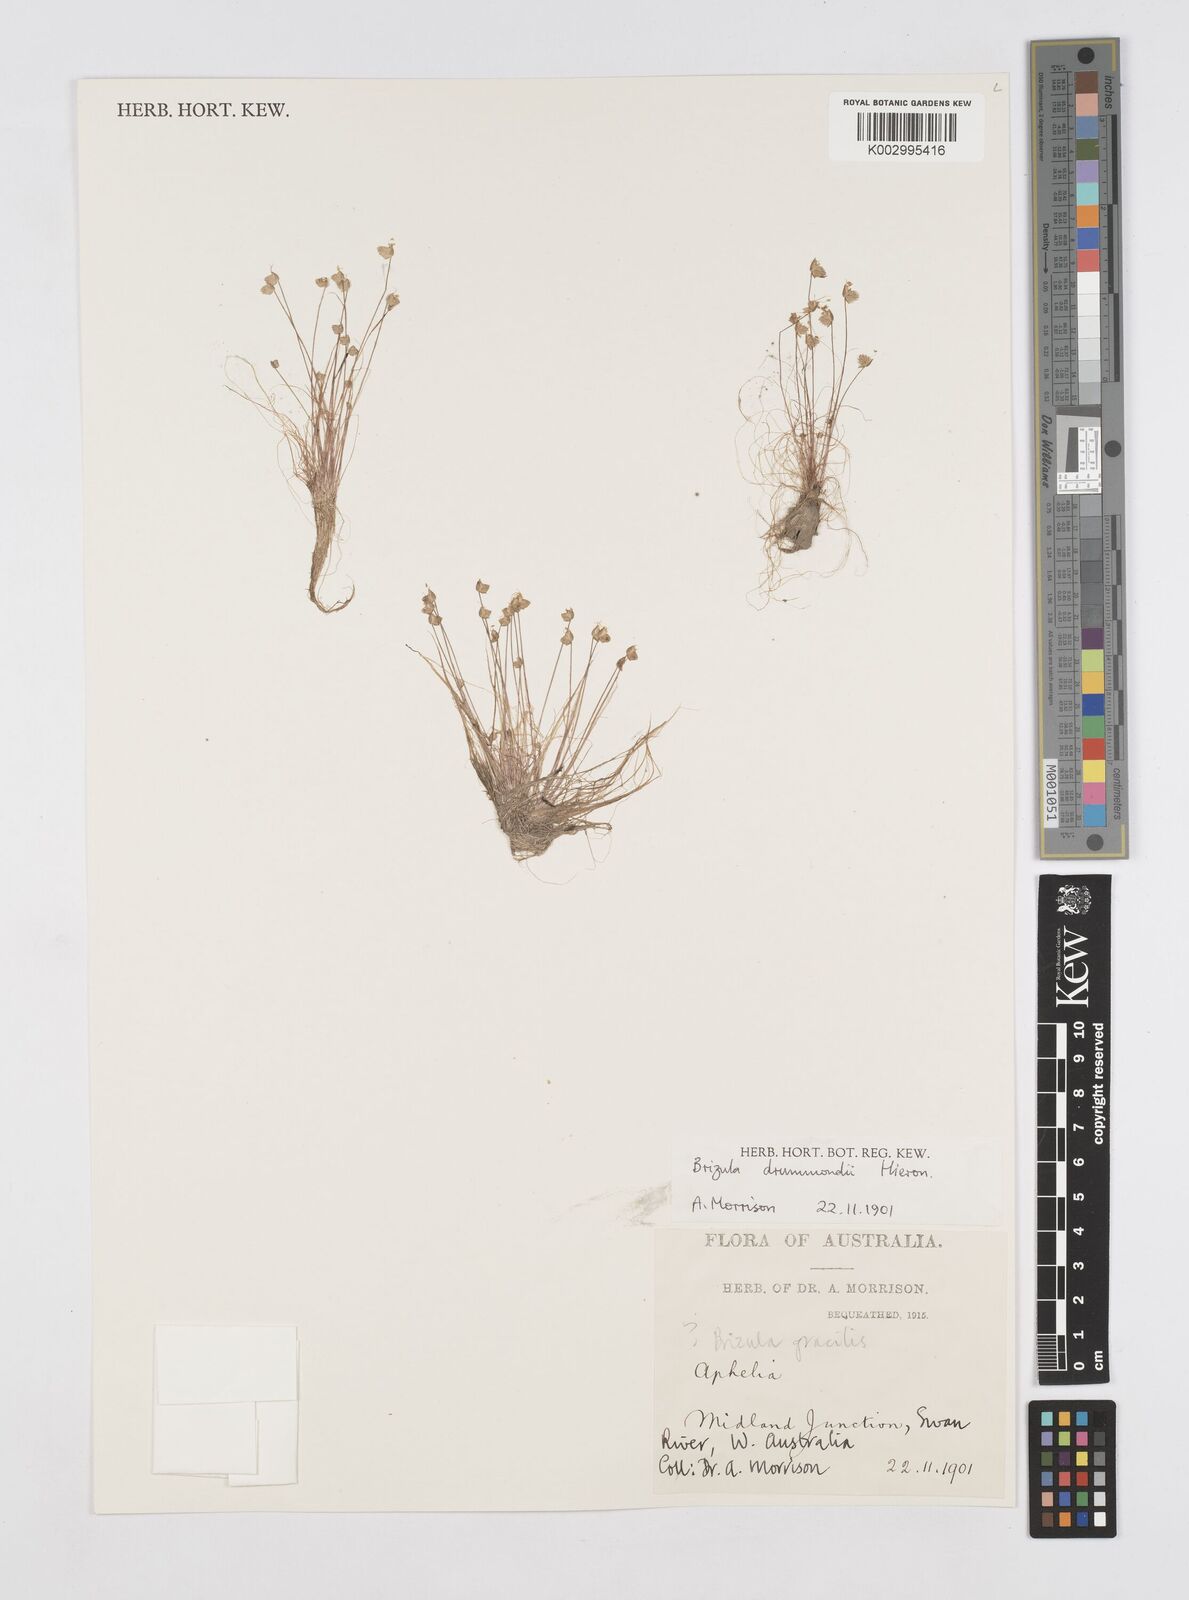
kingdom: Plantae
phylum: Tracheophyta
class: Liliopsida
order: Poales
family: Restionaceae
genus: Aphelia
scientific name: Aphelia drummondii
